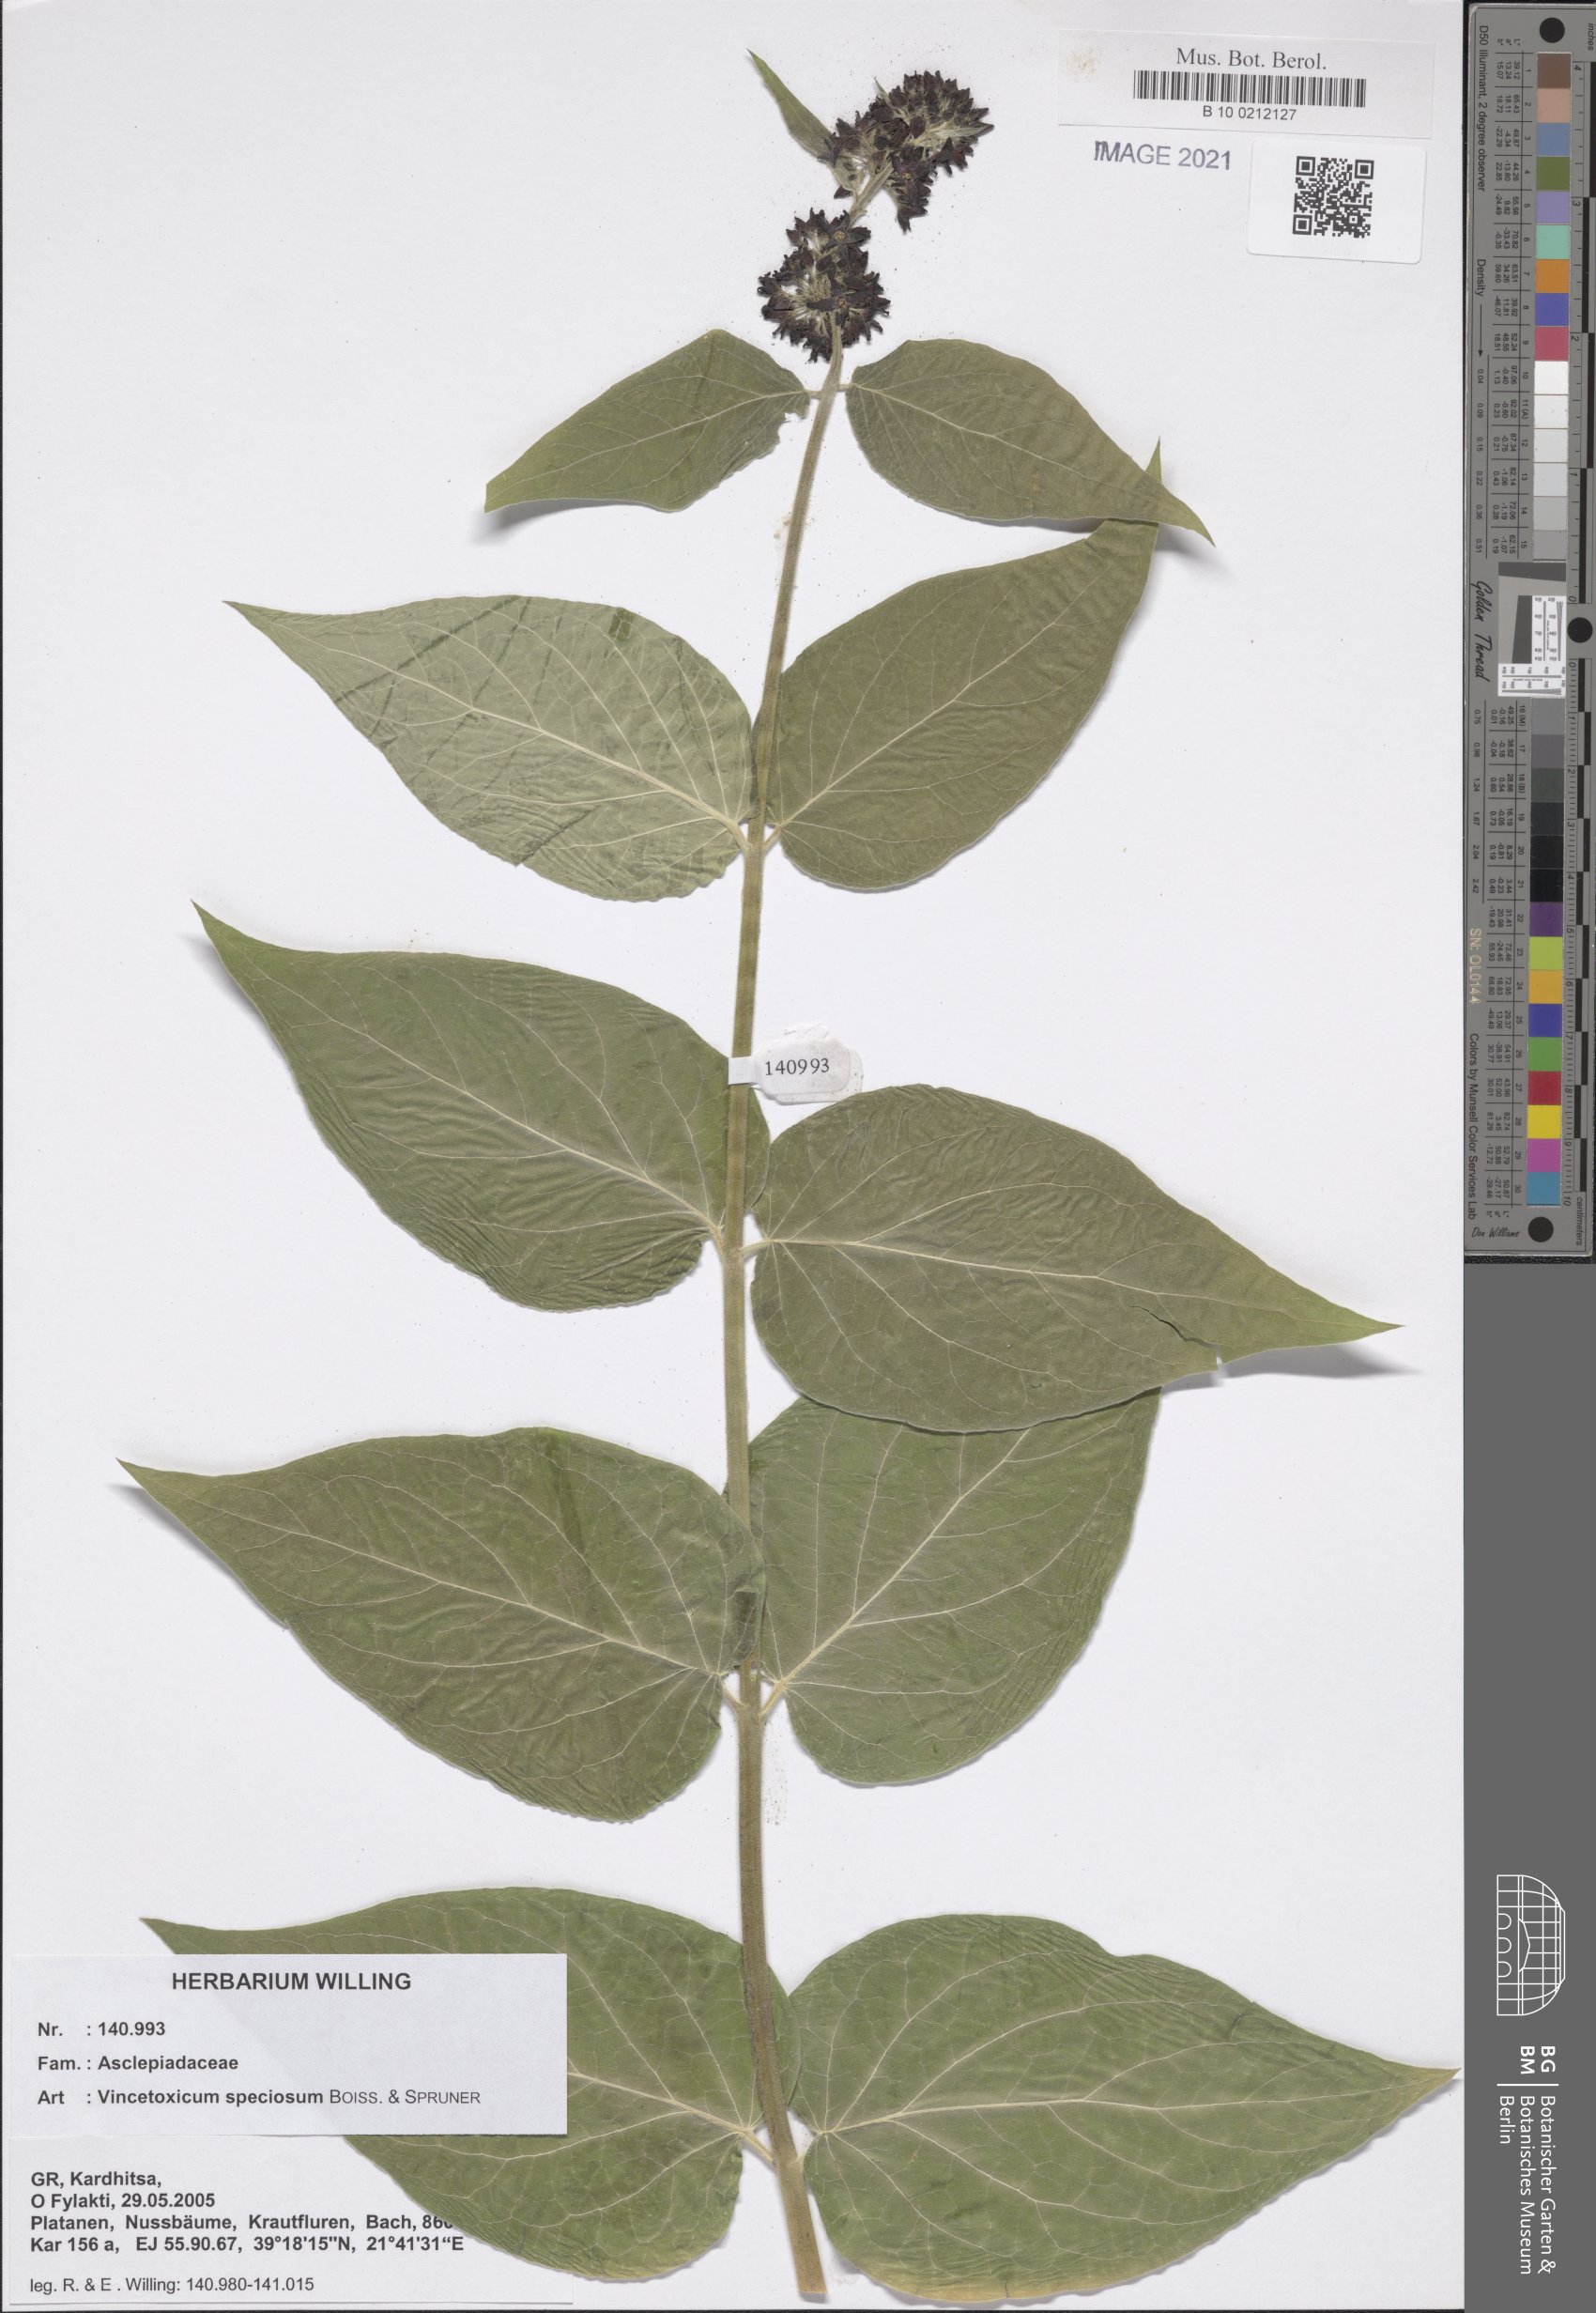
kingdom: Plantae
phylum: Tracheophyta
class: Magnoliopsida
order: Gentianales
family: Apocynaceae
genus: Vincetoxicum
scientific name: Vincetoxicum speciosum
